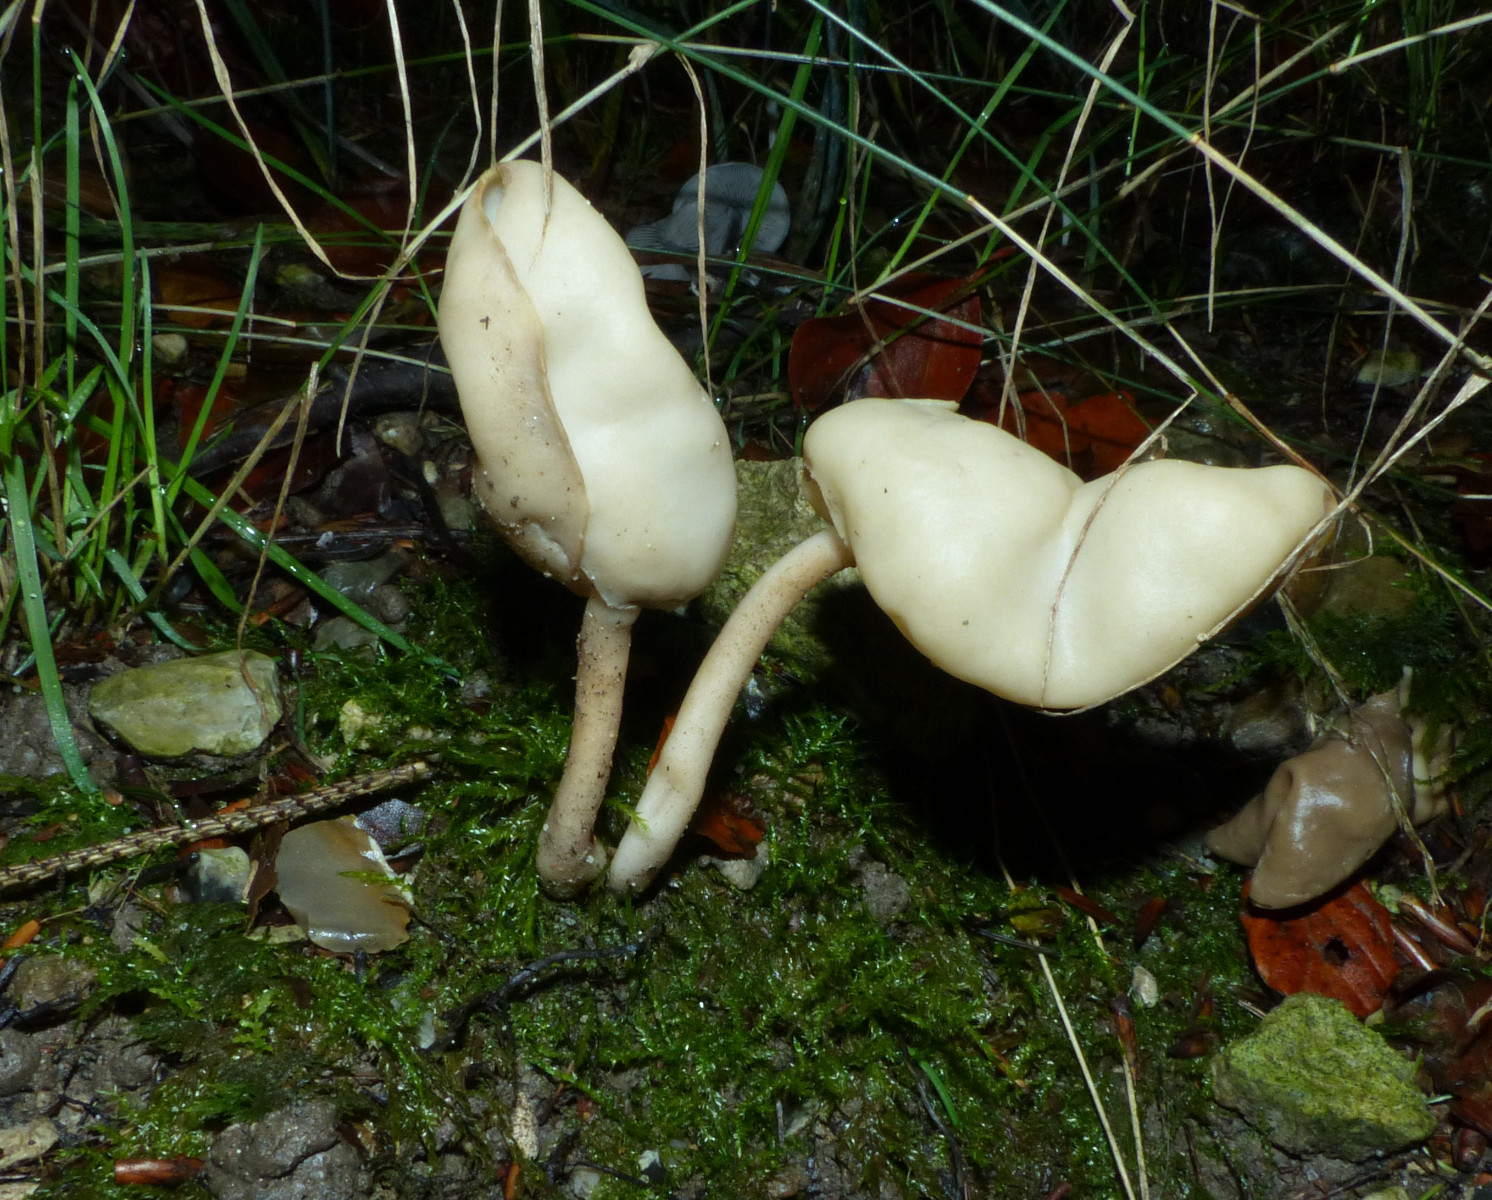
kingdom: Fungi
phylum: Ascomycota
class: Pezizomycetes
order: Pezizales
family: Helvellaceae
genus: Helvella
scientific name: Helvella elastica
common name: elastik-foldhat
